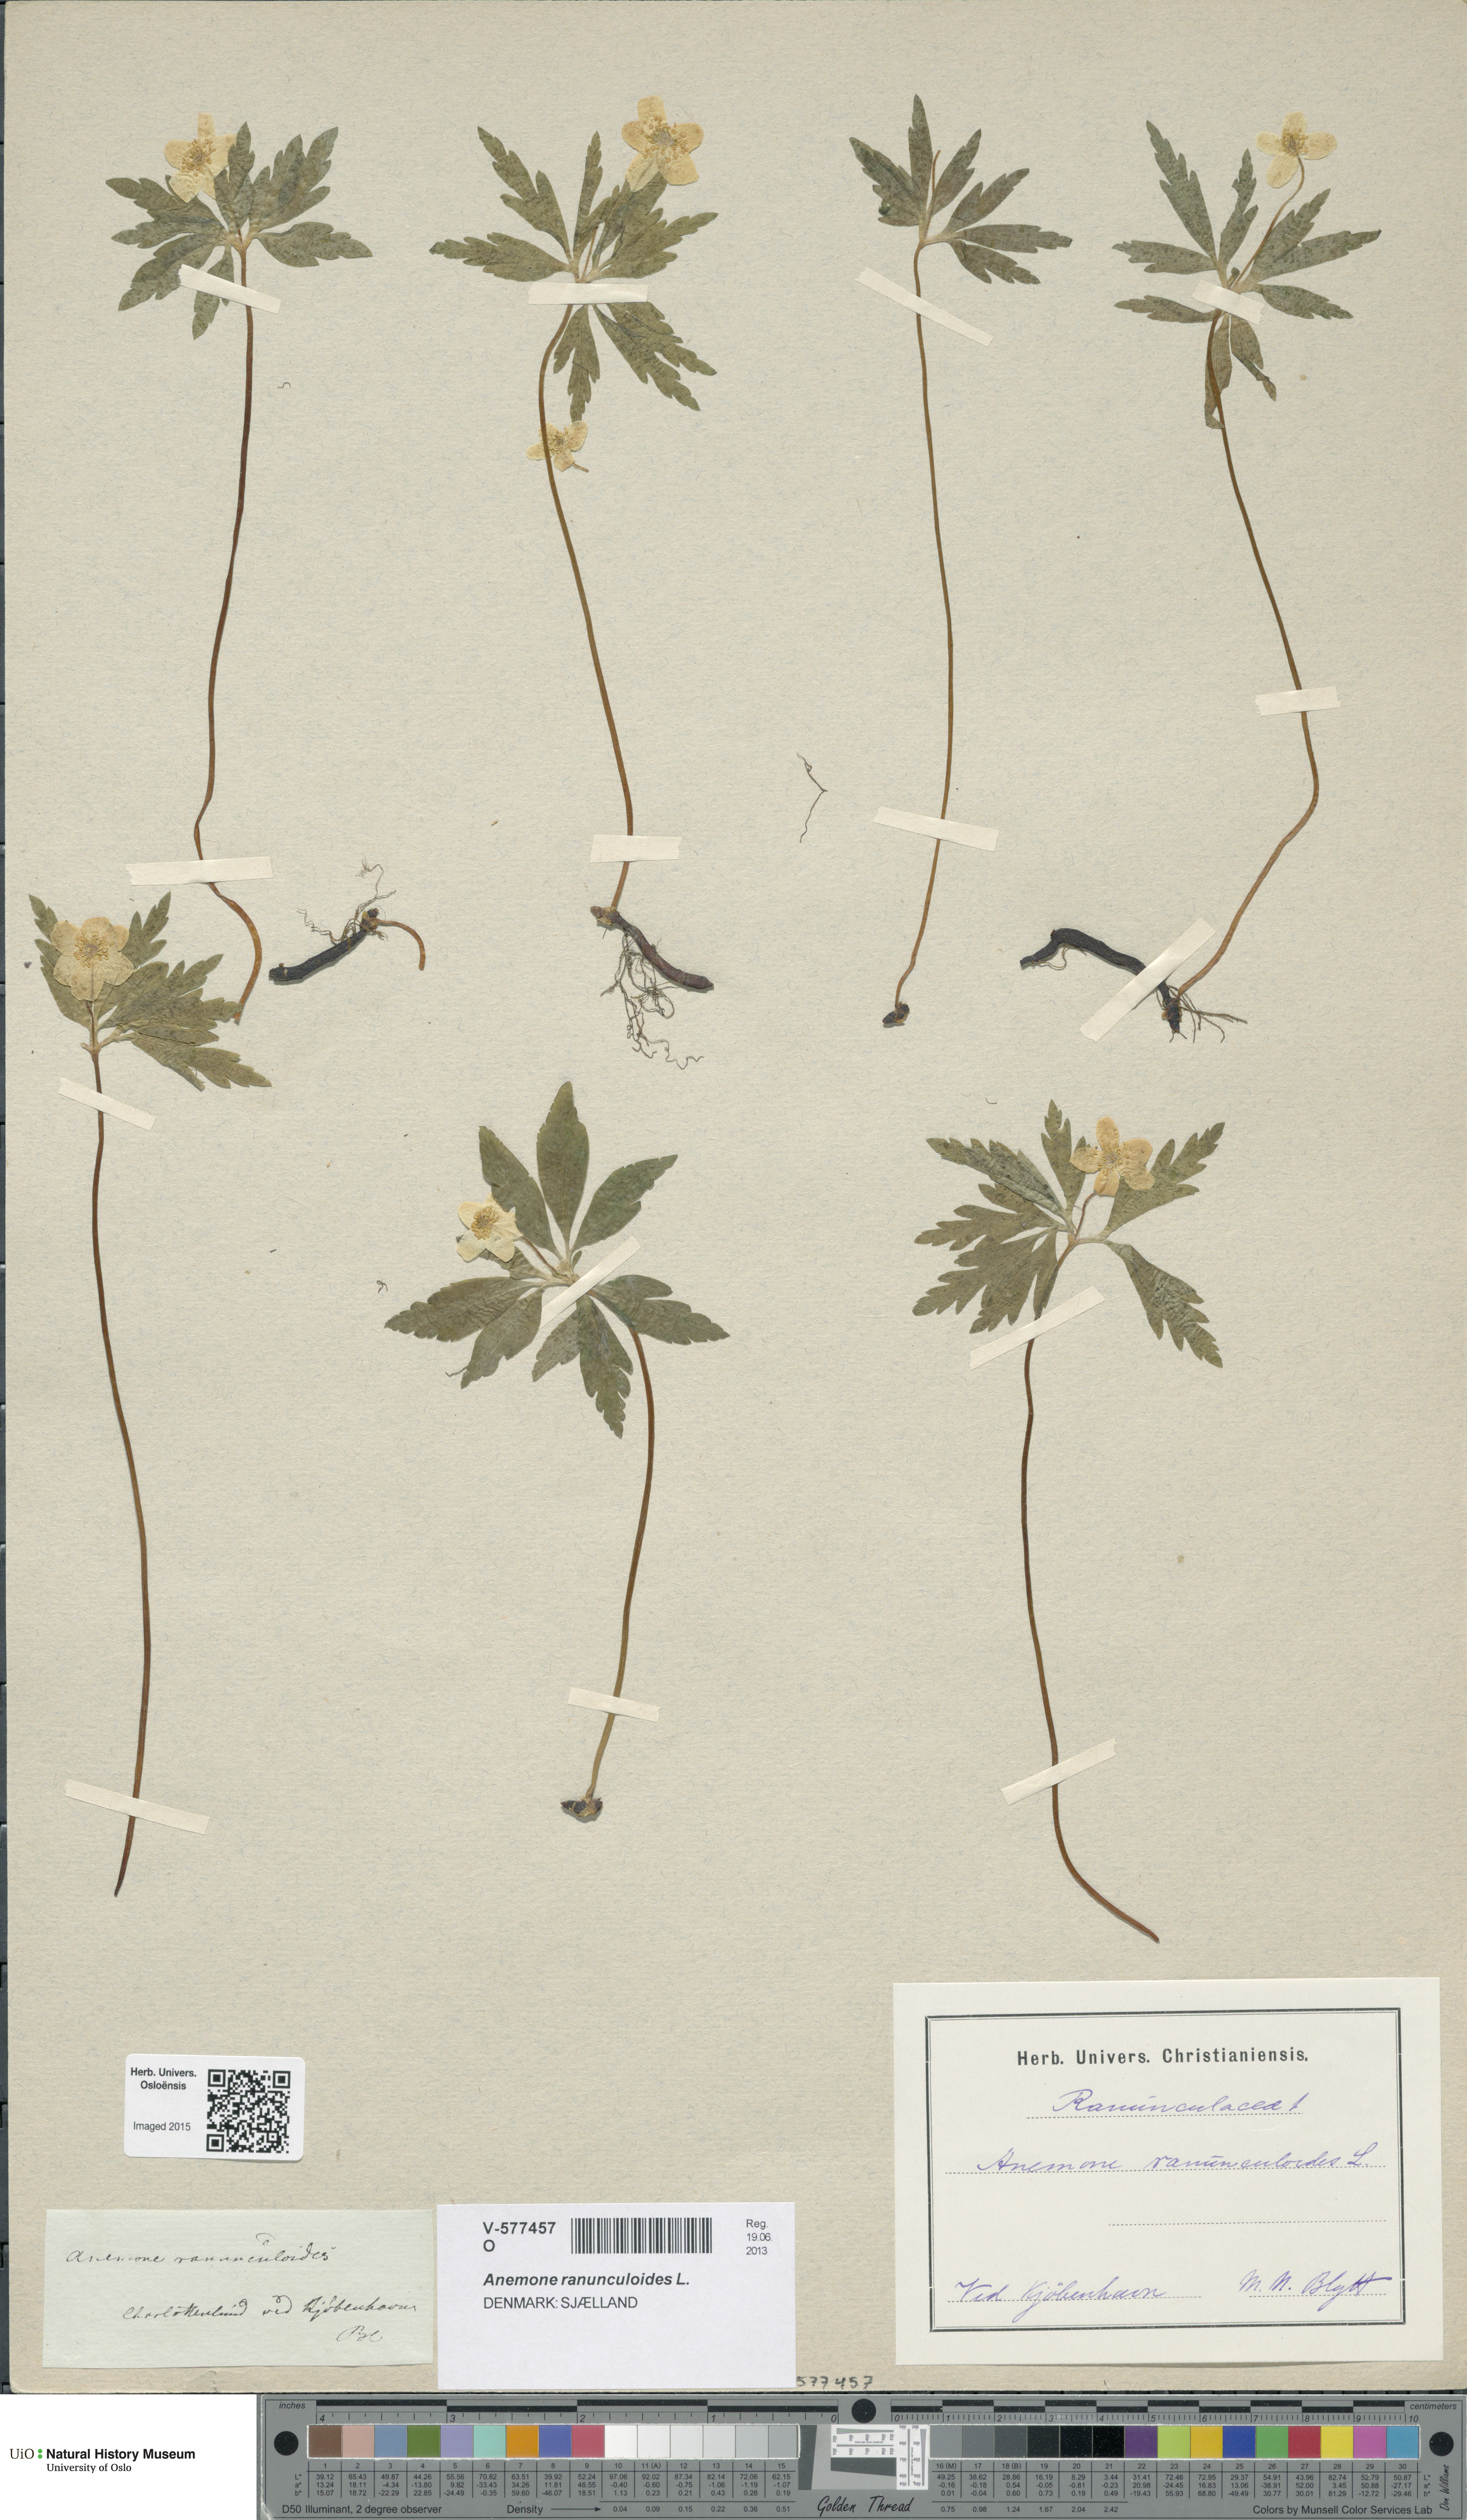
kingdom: Plantae
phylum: Tracheophyta
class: Magnoliopsida
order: Ranunculales
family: Ranunculaceae
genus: Anemone
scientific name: Anemone ranunculoides
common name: Yellow anemone
